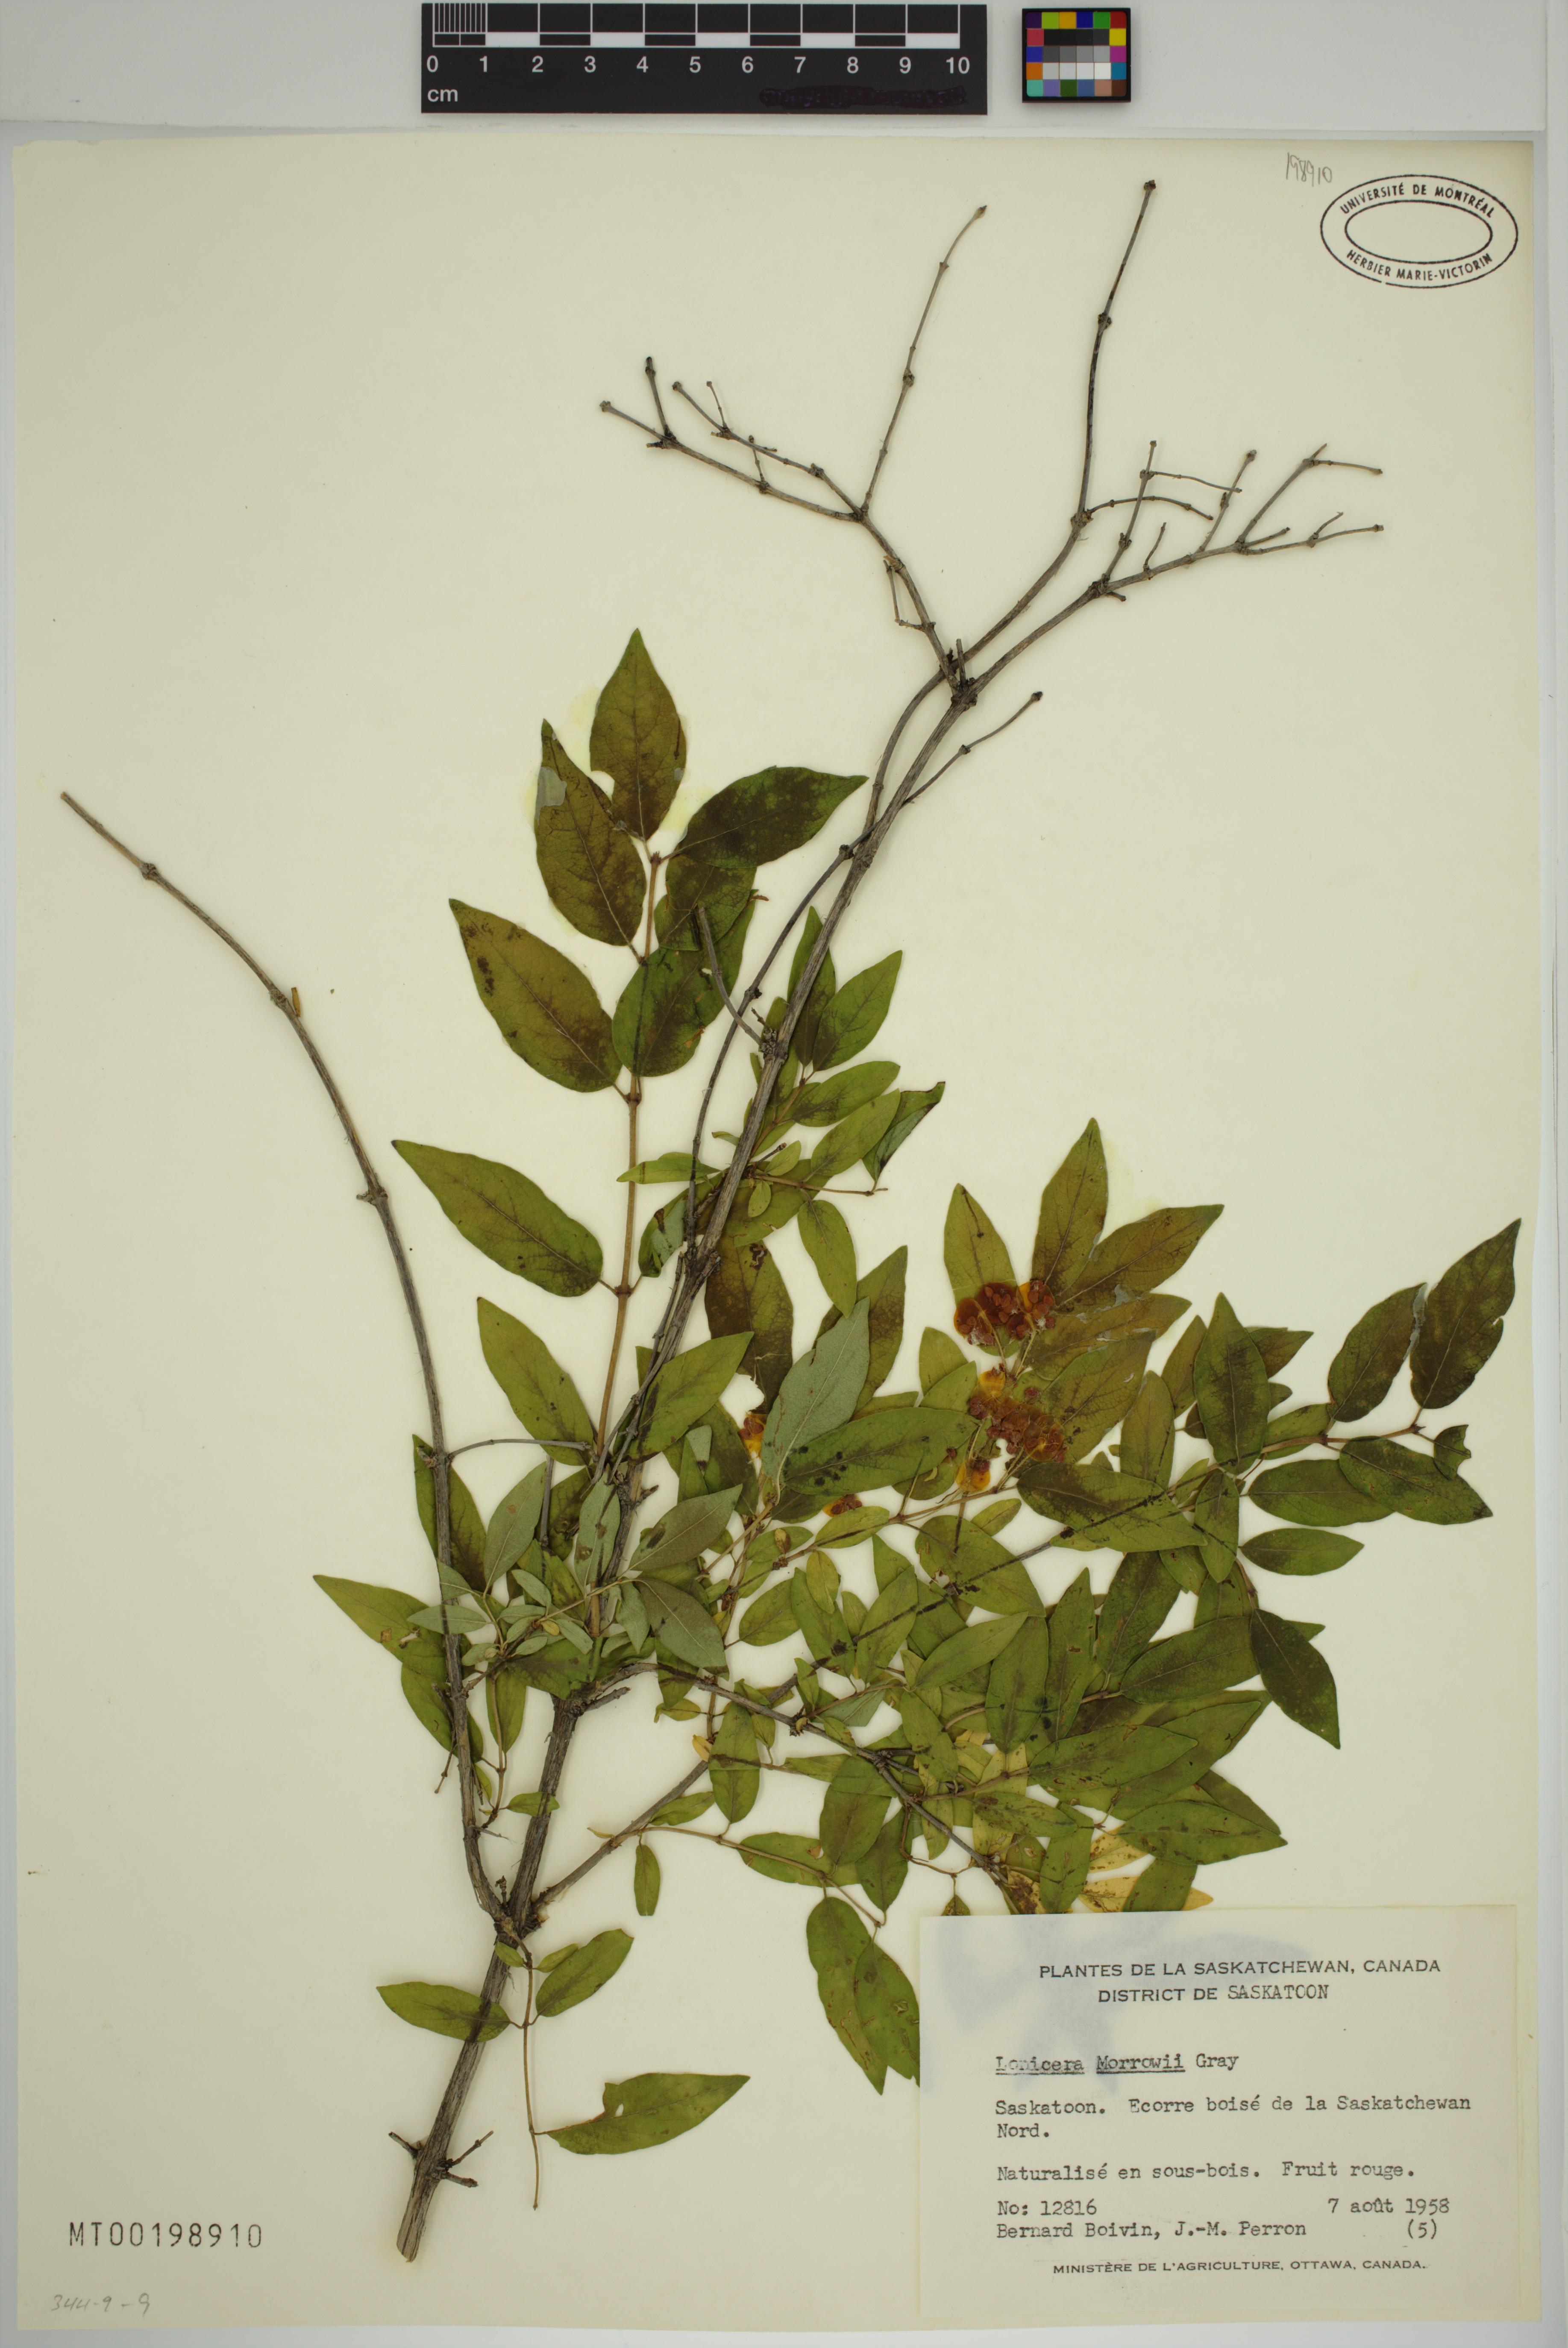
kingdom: Plantae
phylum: Tracheophyta
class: Magnoliopsida
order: Dipsacales
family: Caprifoliaceae
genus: Lonicera
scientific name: Lonicera tatarica
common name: Tatarian honeysuckle
